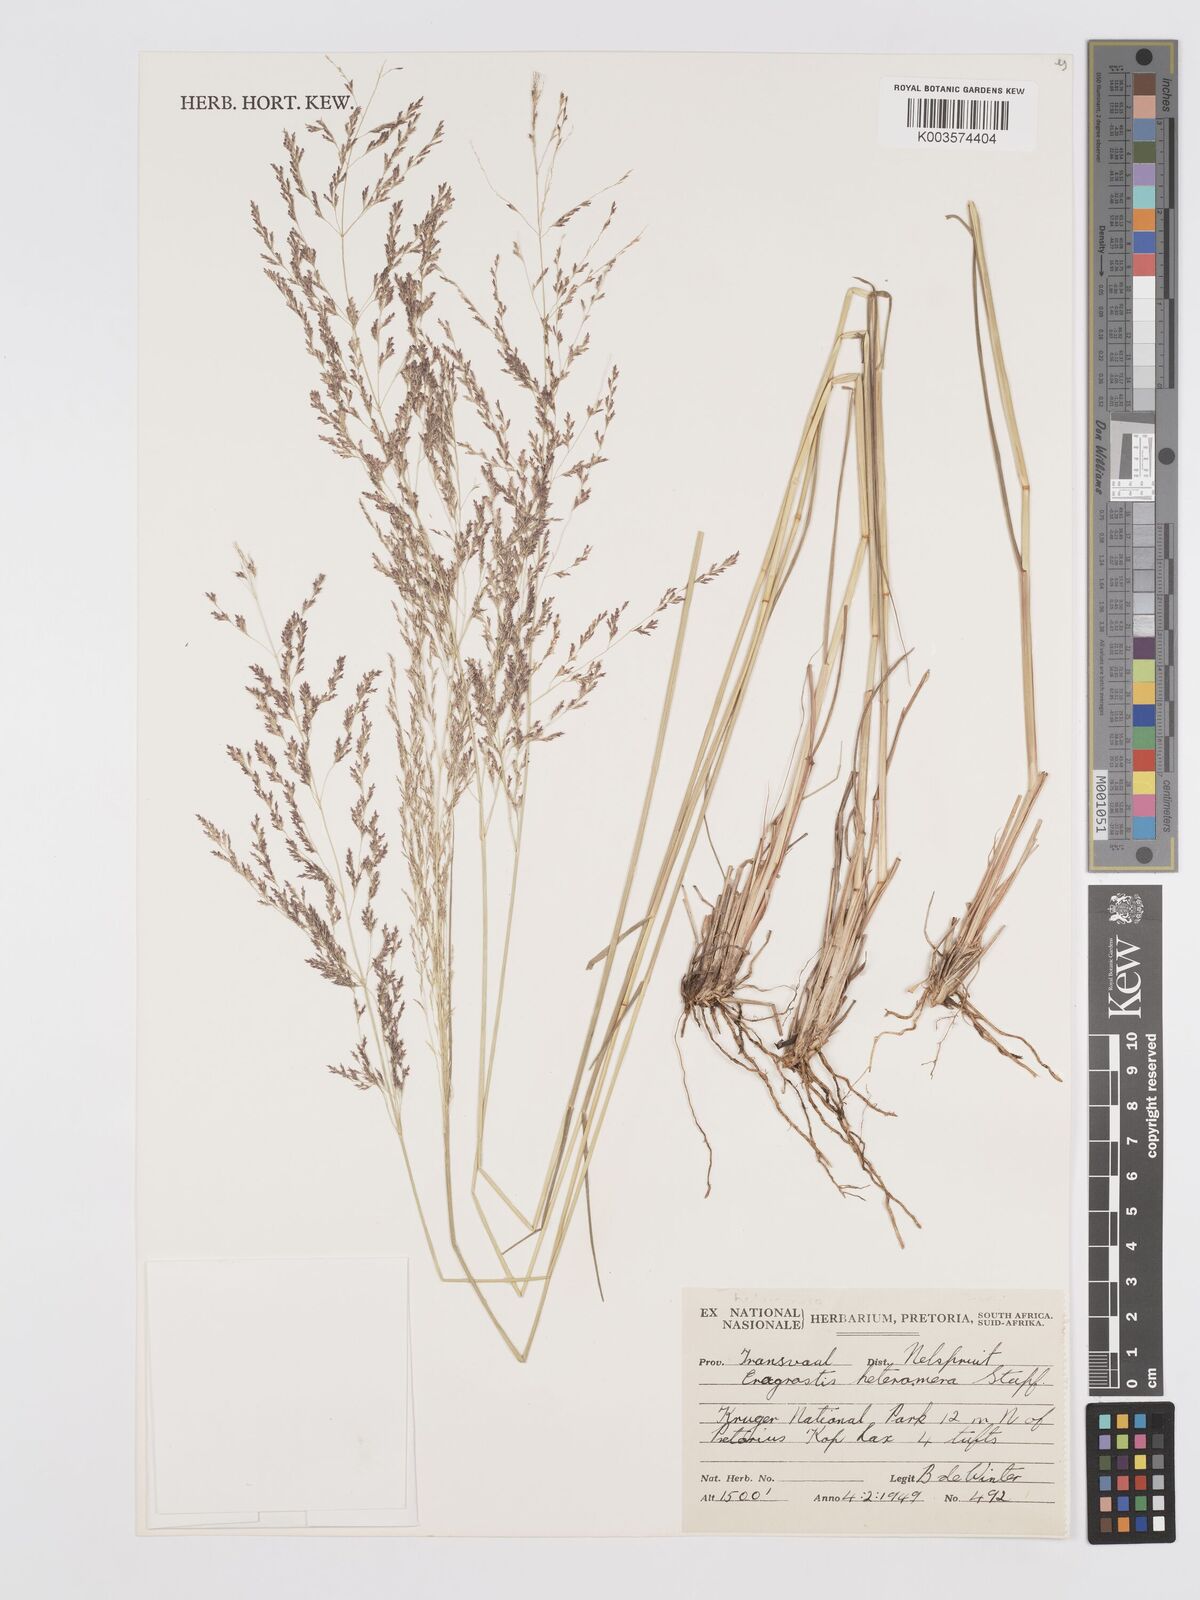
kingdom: Plantae
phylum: Tracheophyta
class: Liliopsida
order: Poales
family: Poaceae
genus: Eragrostis
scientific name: Eragrostis heteromera
